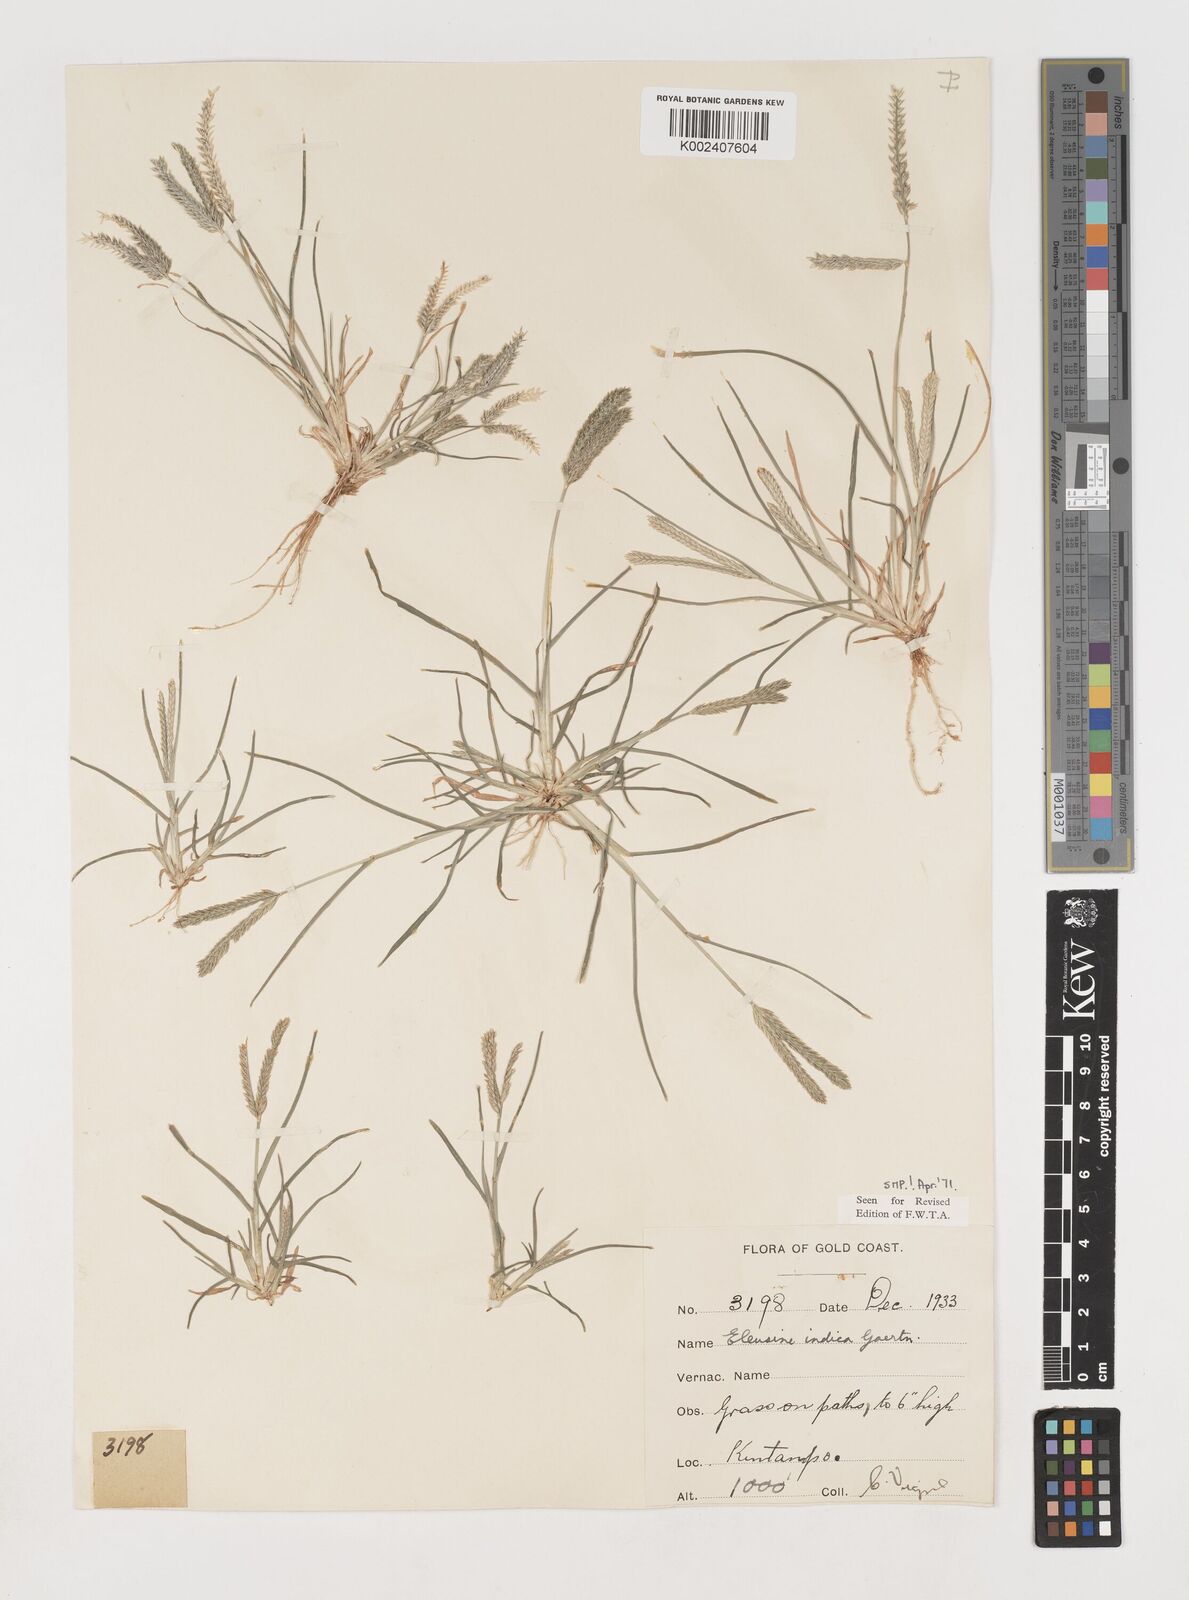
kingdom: Plantae
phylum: Tracheophyta
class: Liliopsida
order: Poales
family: Poaceae
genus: Eleusine
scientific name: Eleusine indica
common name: Yard-grass
